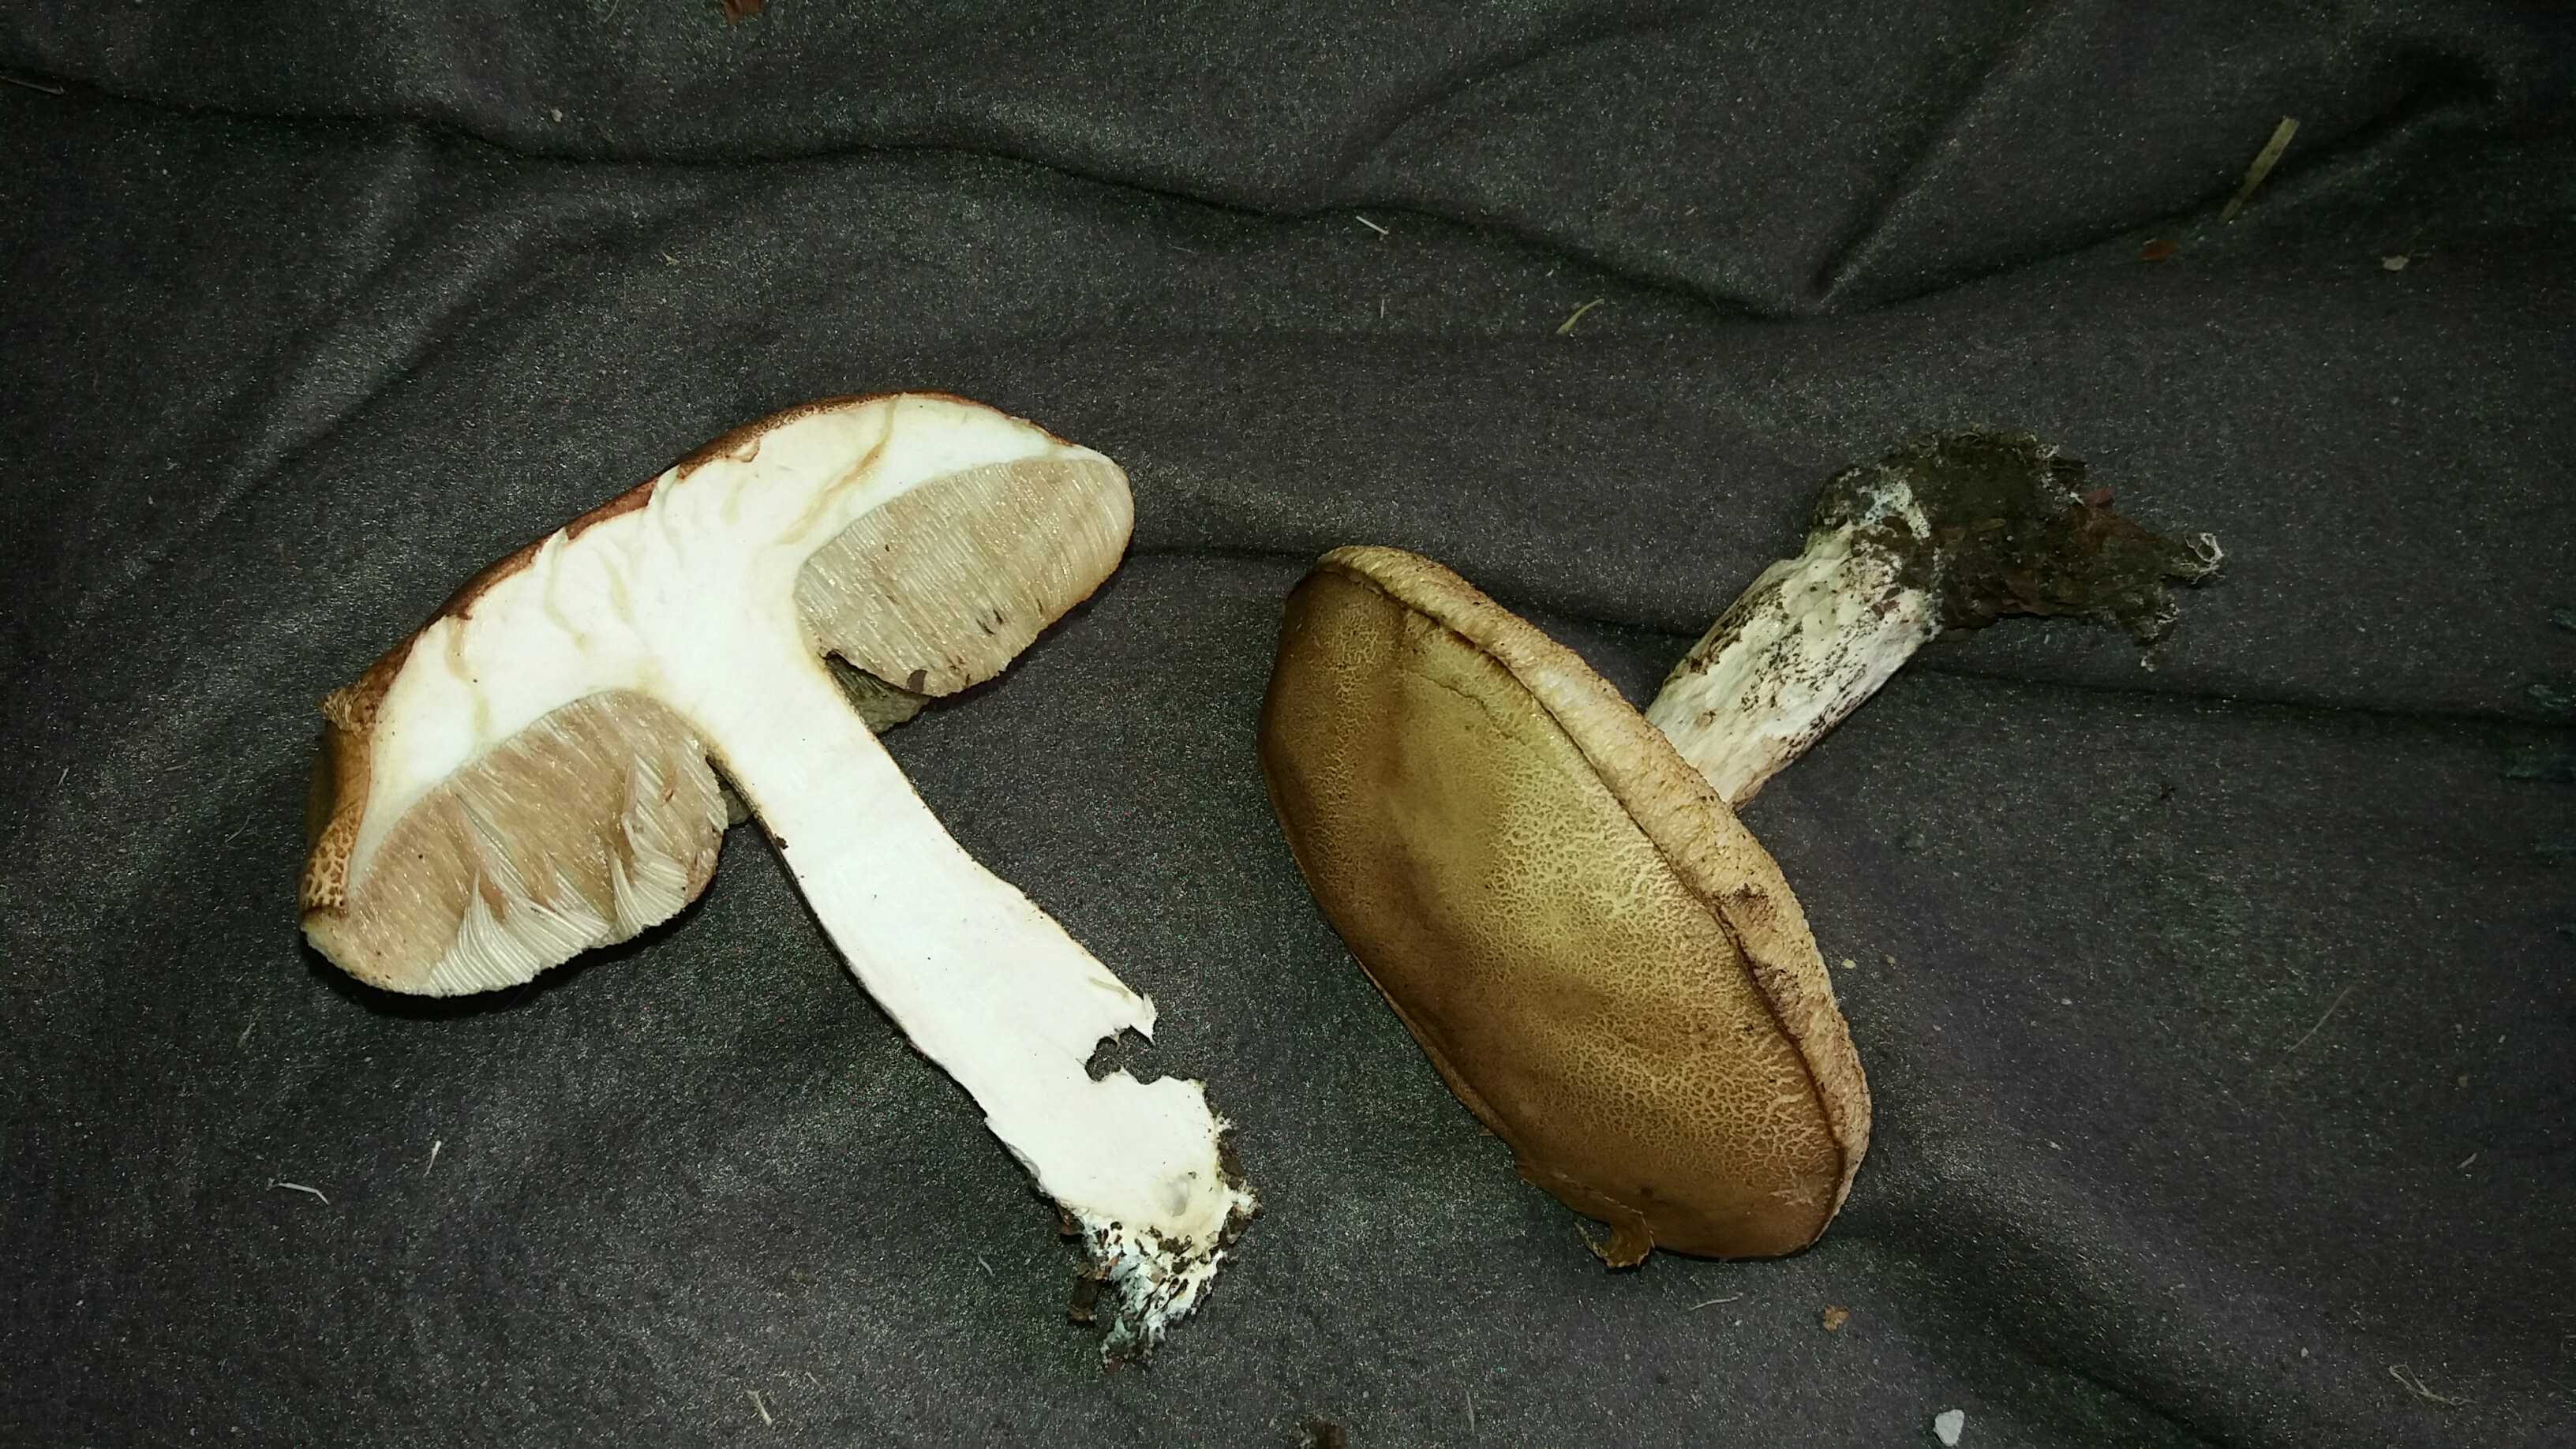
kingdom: Fungi
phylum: Basidiomycota
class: Agaricomycetes
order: Boletales
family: Boletaceae
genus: Leccinum
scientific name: Leccinum
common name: skælrørhat
